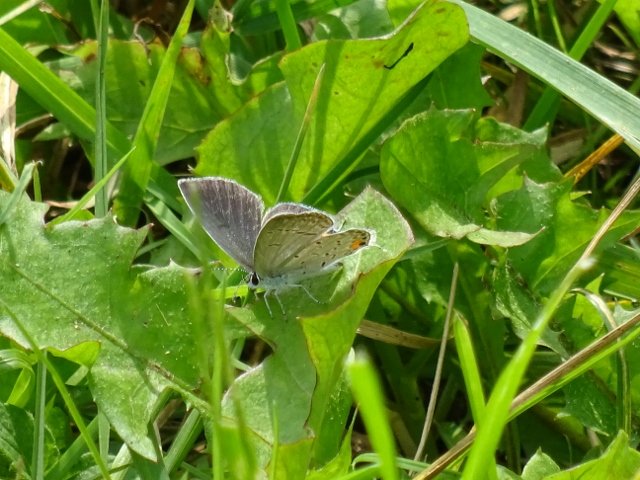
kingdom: Animalia
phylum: Arthropoda
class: Insecta
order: Lepidoptera
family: Lycaenidae
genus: Elkalyce
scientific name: Elkalyce comyntas
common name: Eastern Tailed-Blue
